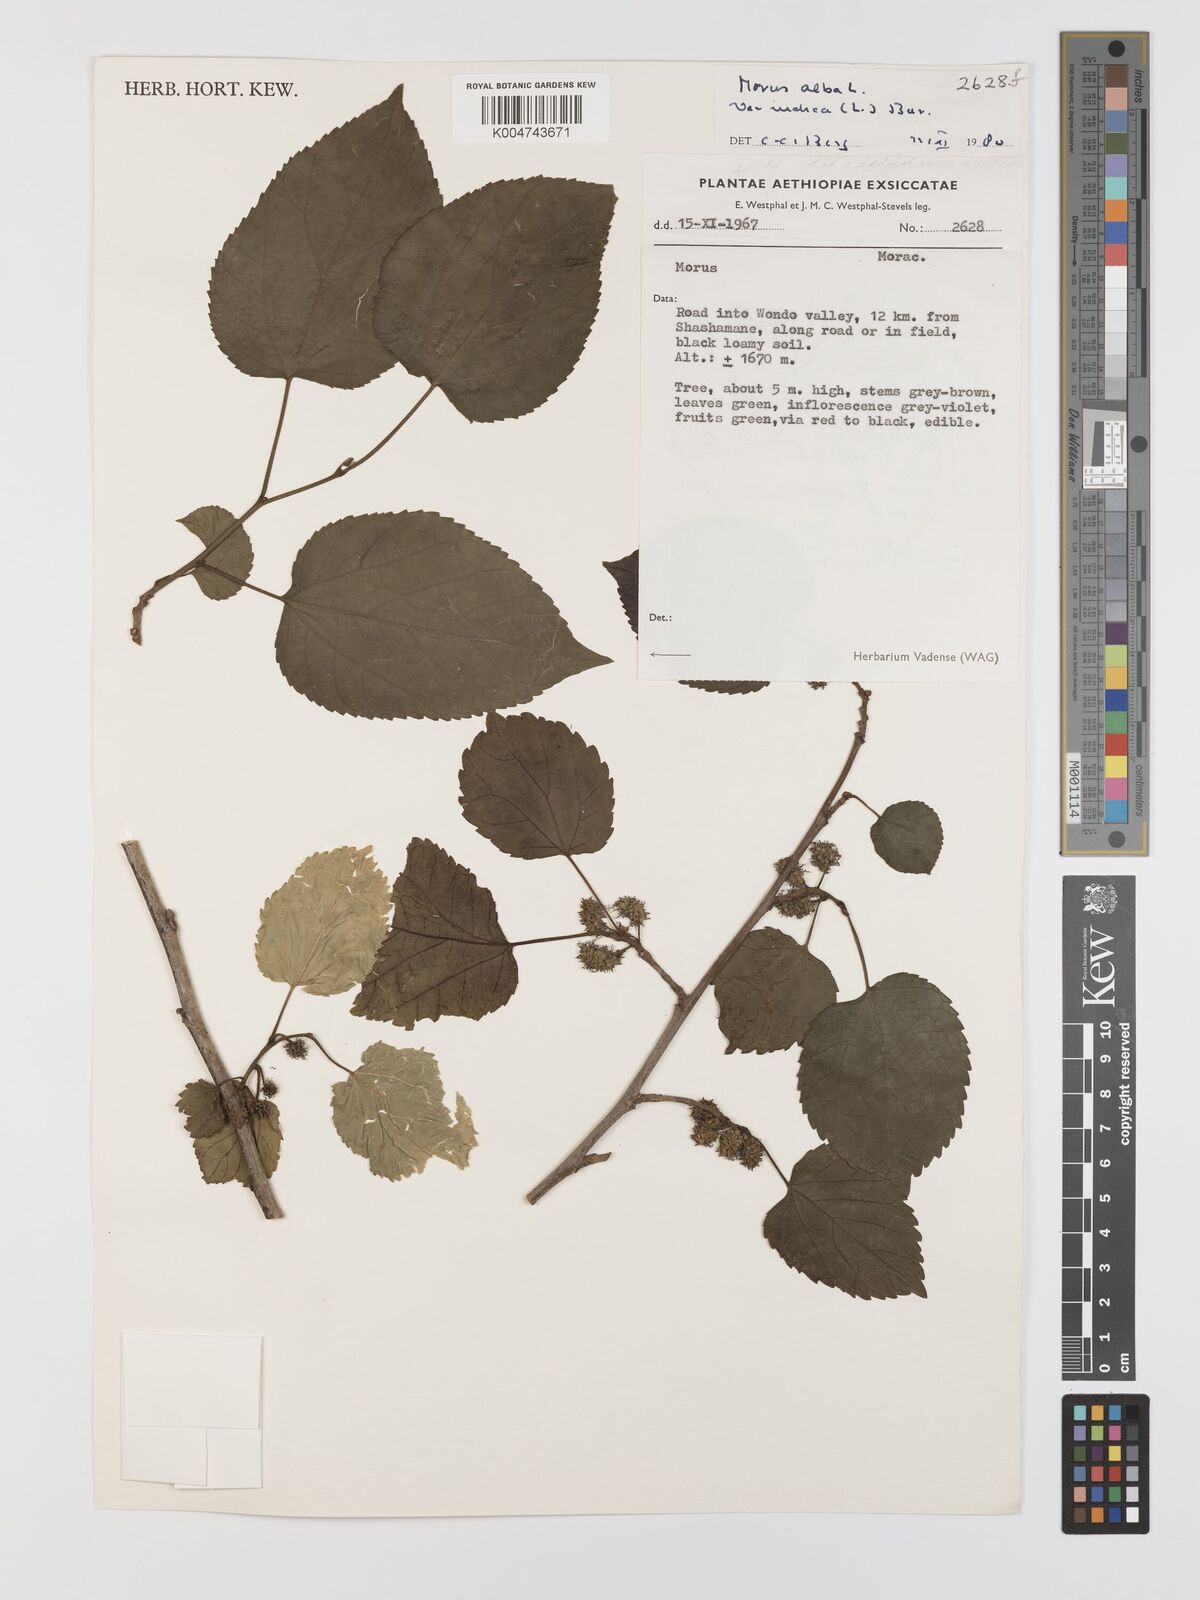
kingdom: Plantae
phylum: Tracheophyta
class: Magnoliopsida
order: Rosales
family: Moraceae
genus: Morus
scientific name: Morus indica
